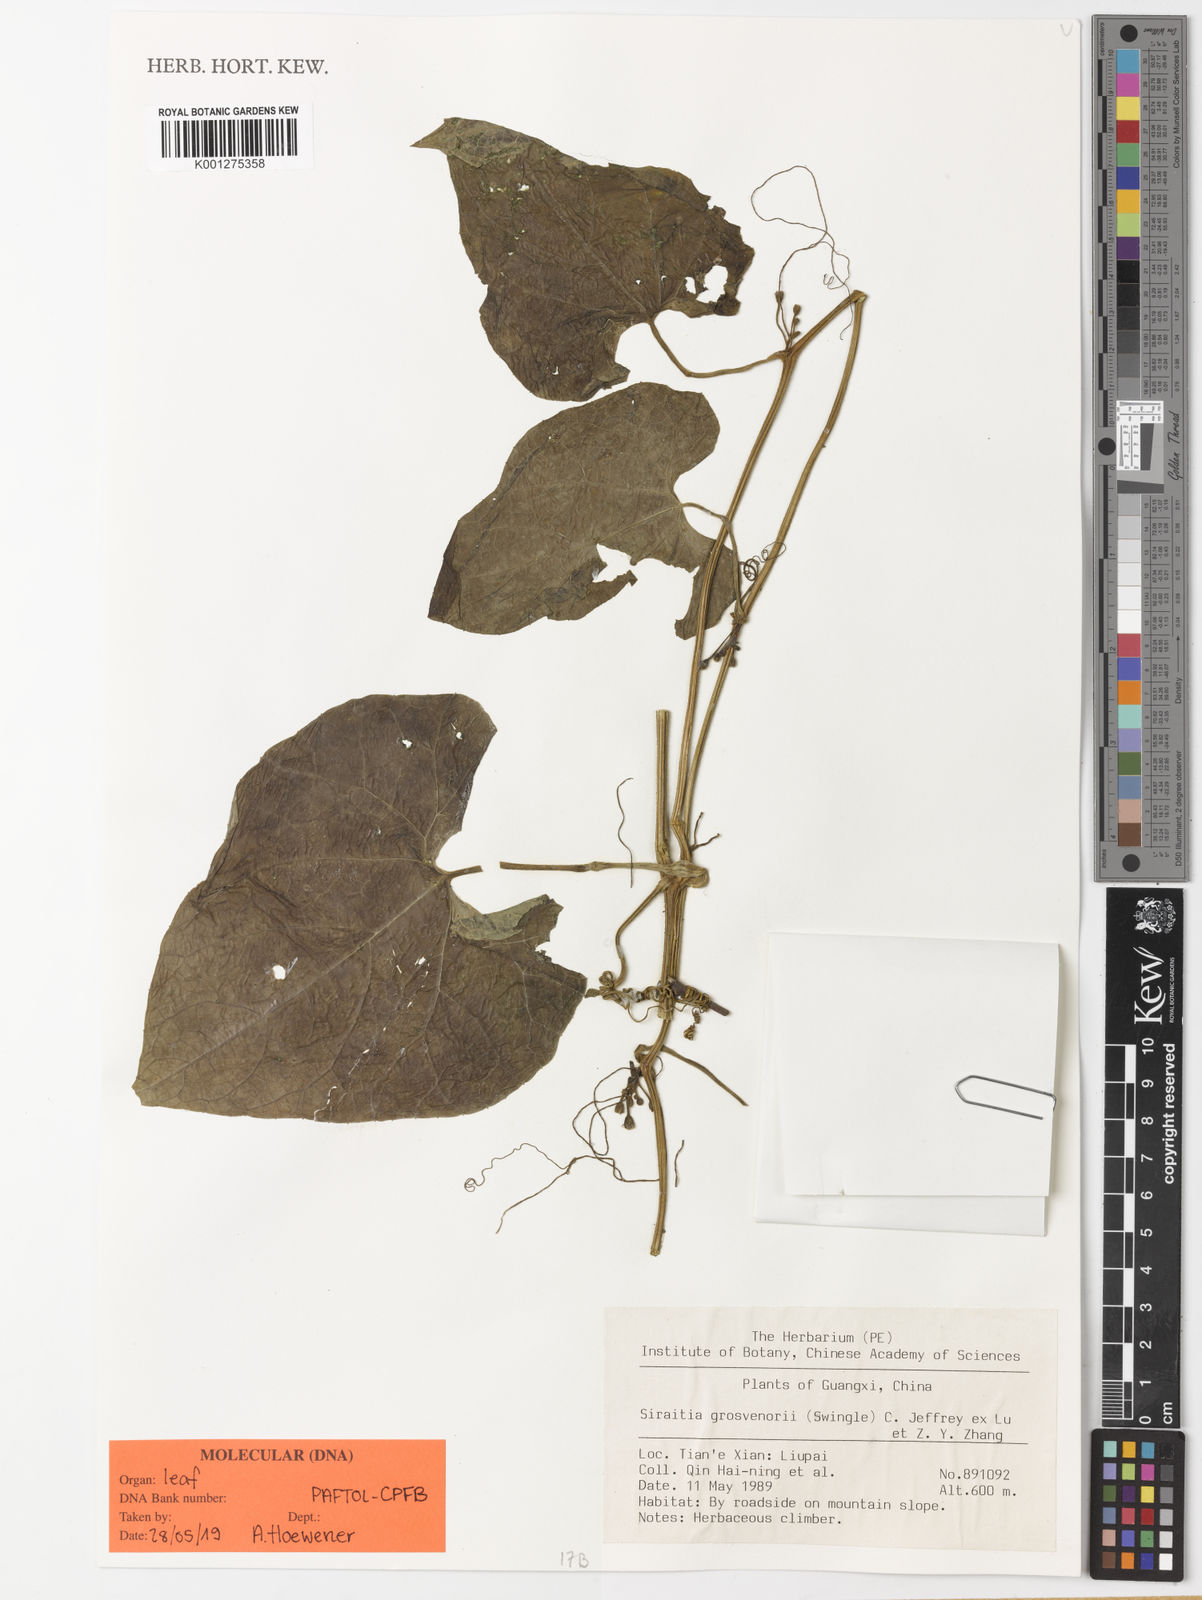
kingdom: Plantae
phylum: Tracheophyta
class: Magnoliopsida
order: Cucurbitales
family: Cucurbitaceae
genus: Siraitia
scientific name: Siraitia grosvenorii
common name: Arhatfruit
